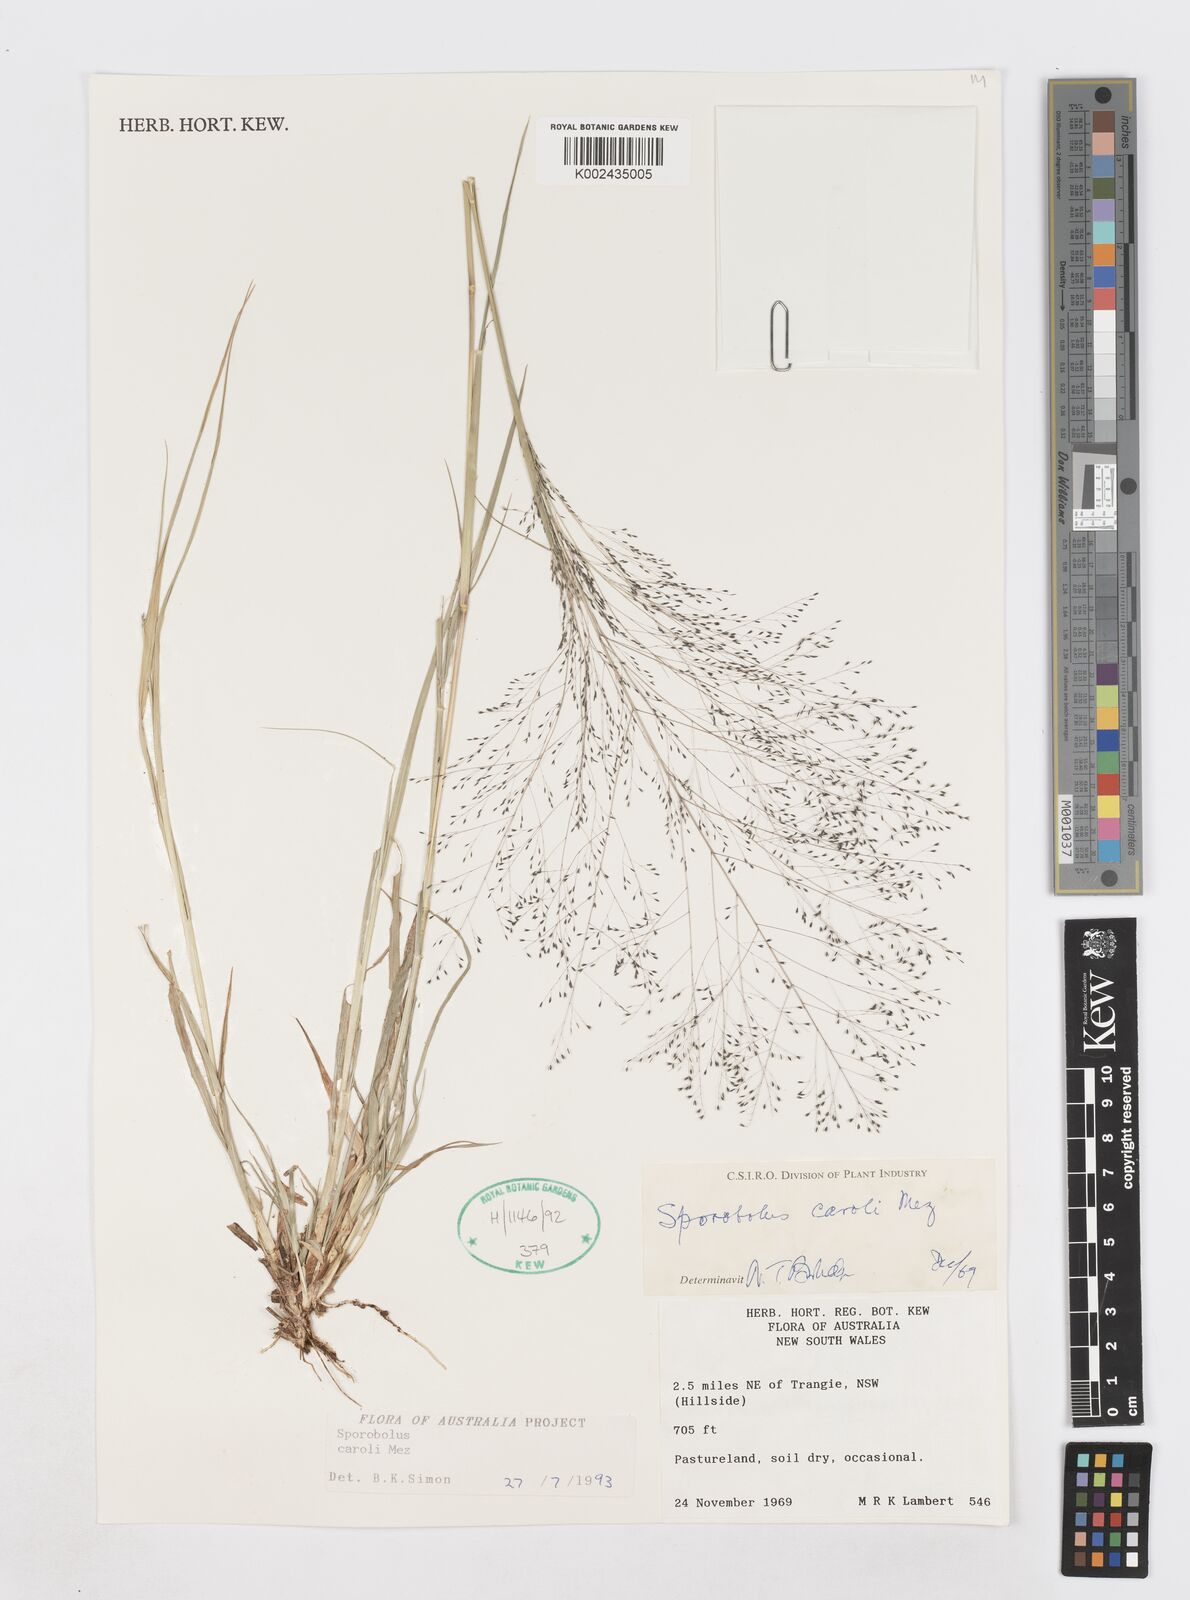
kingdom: Plantae
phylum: Tracheophyta
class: Liliopsida
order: Poales
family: Poaceae
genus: Sporobolus
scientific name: Sporobolus caroli
